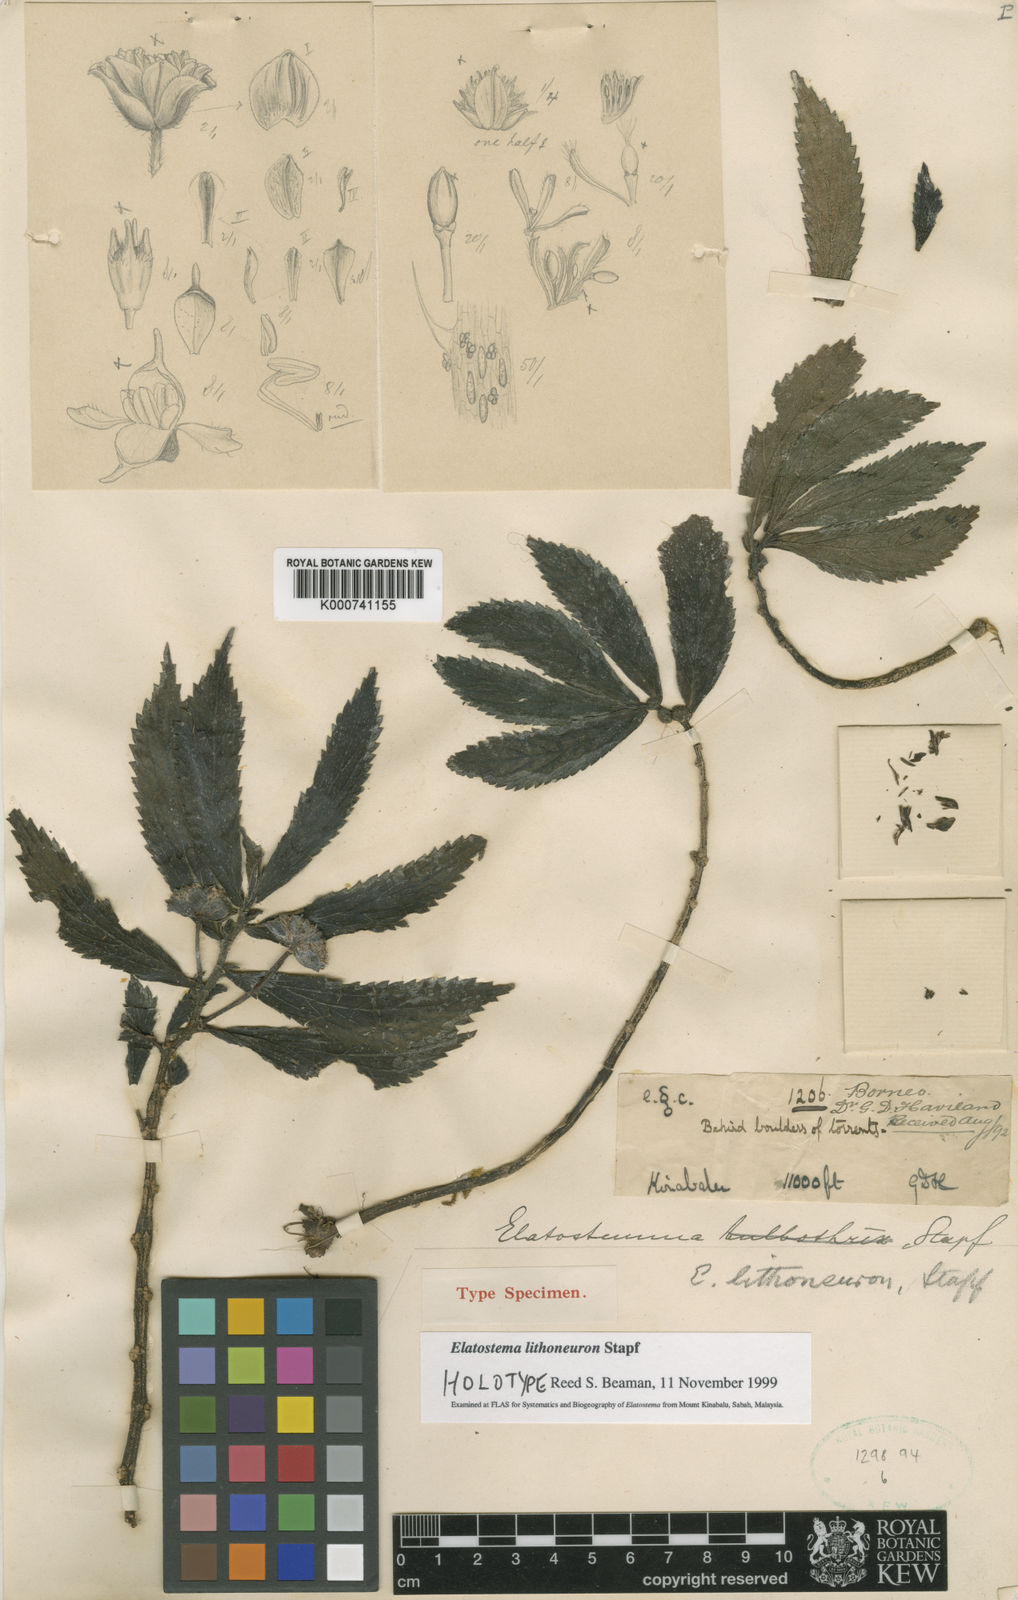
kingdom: Plantae
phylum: Tracheophyta
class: Magnoliopsida
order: Rosales
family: Urticaceae
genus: Elatostema
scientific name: Elatostema lithoneurum
